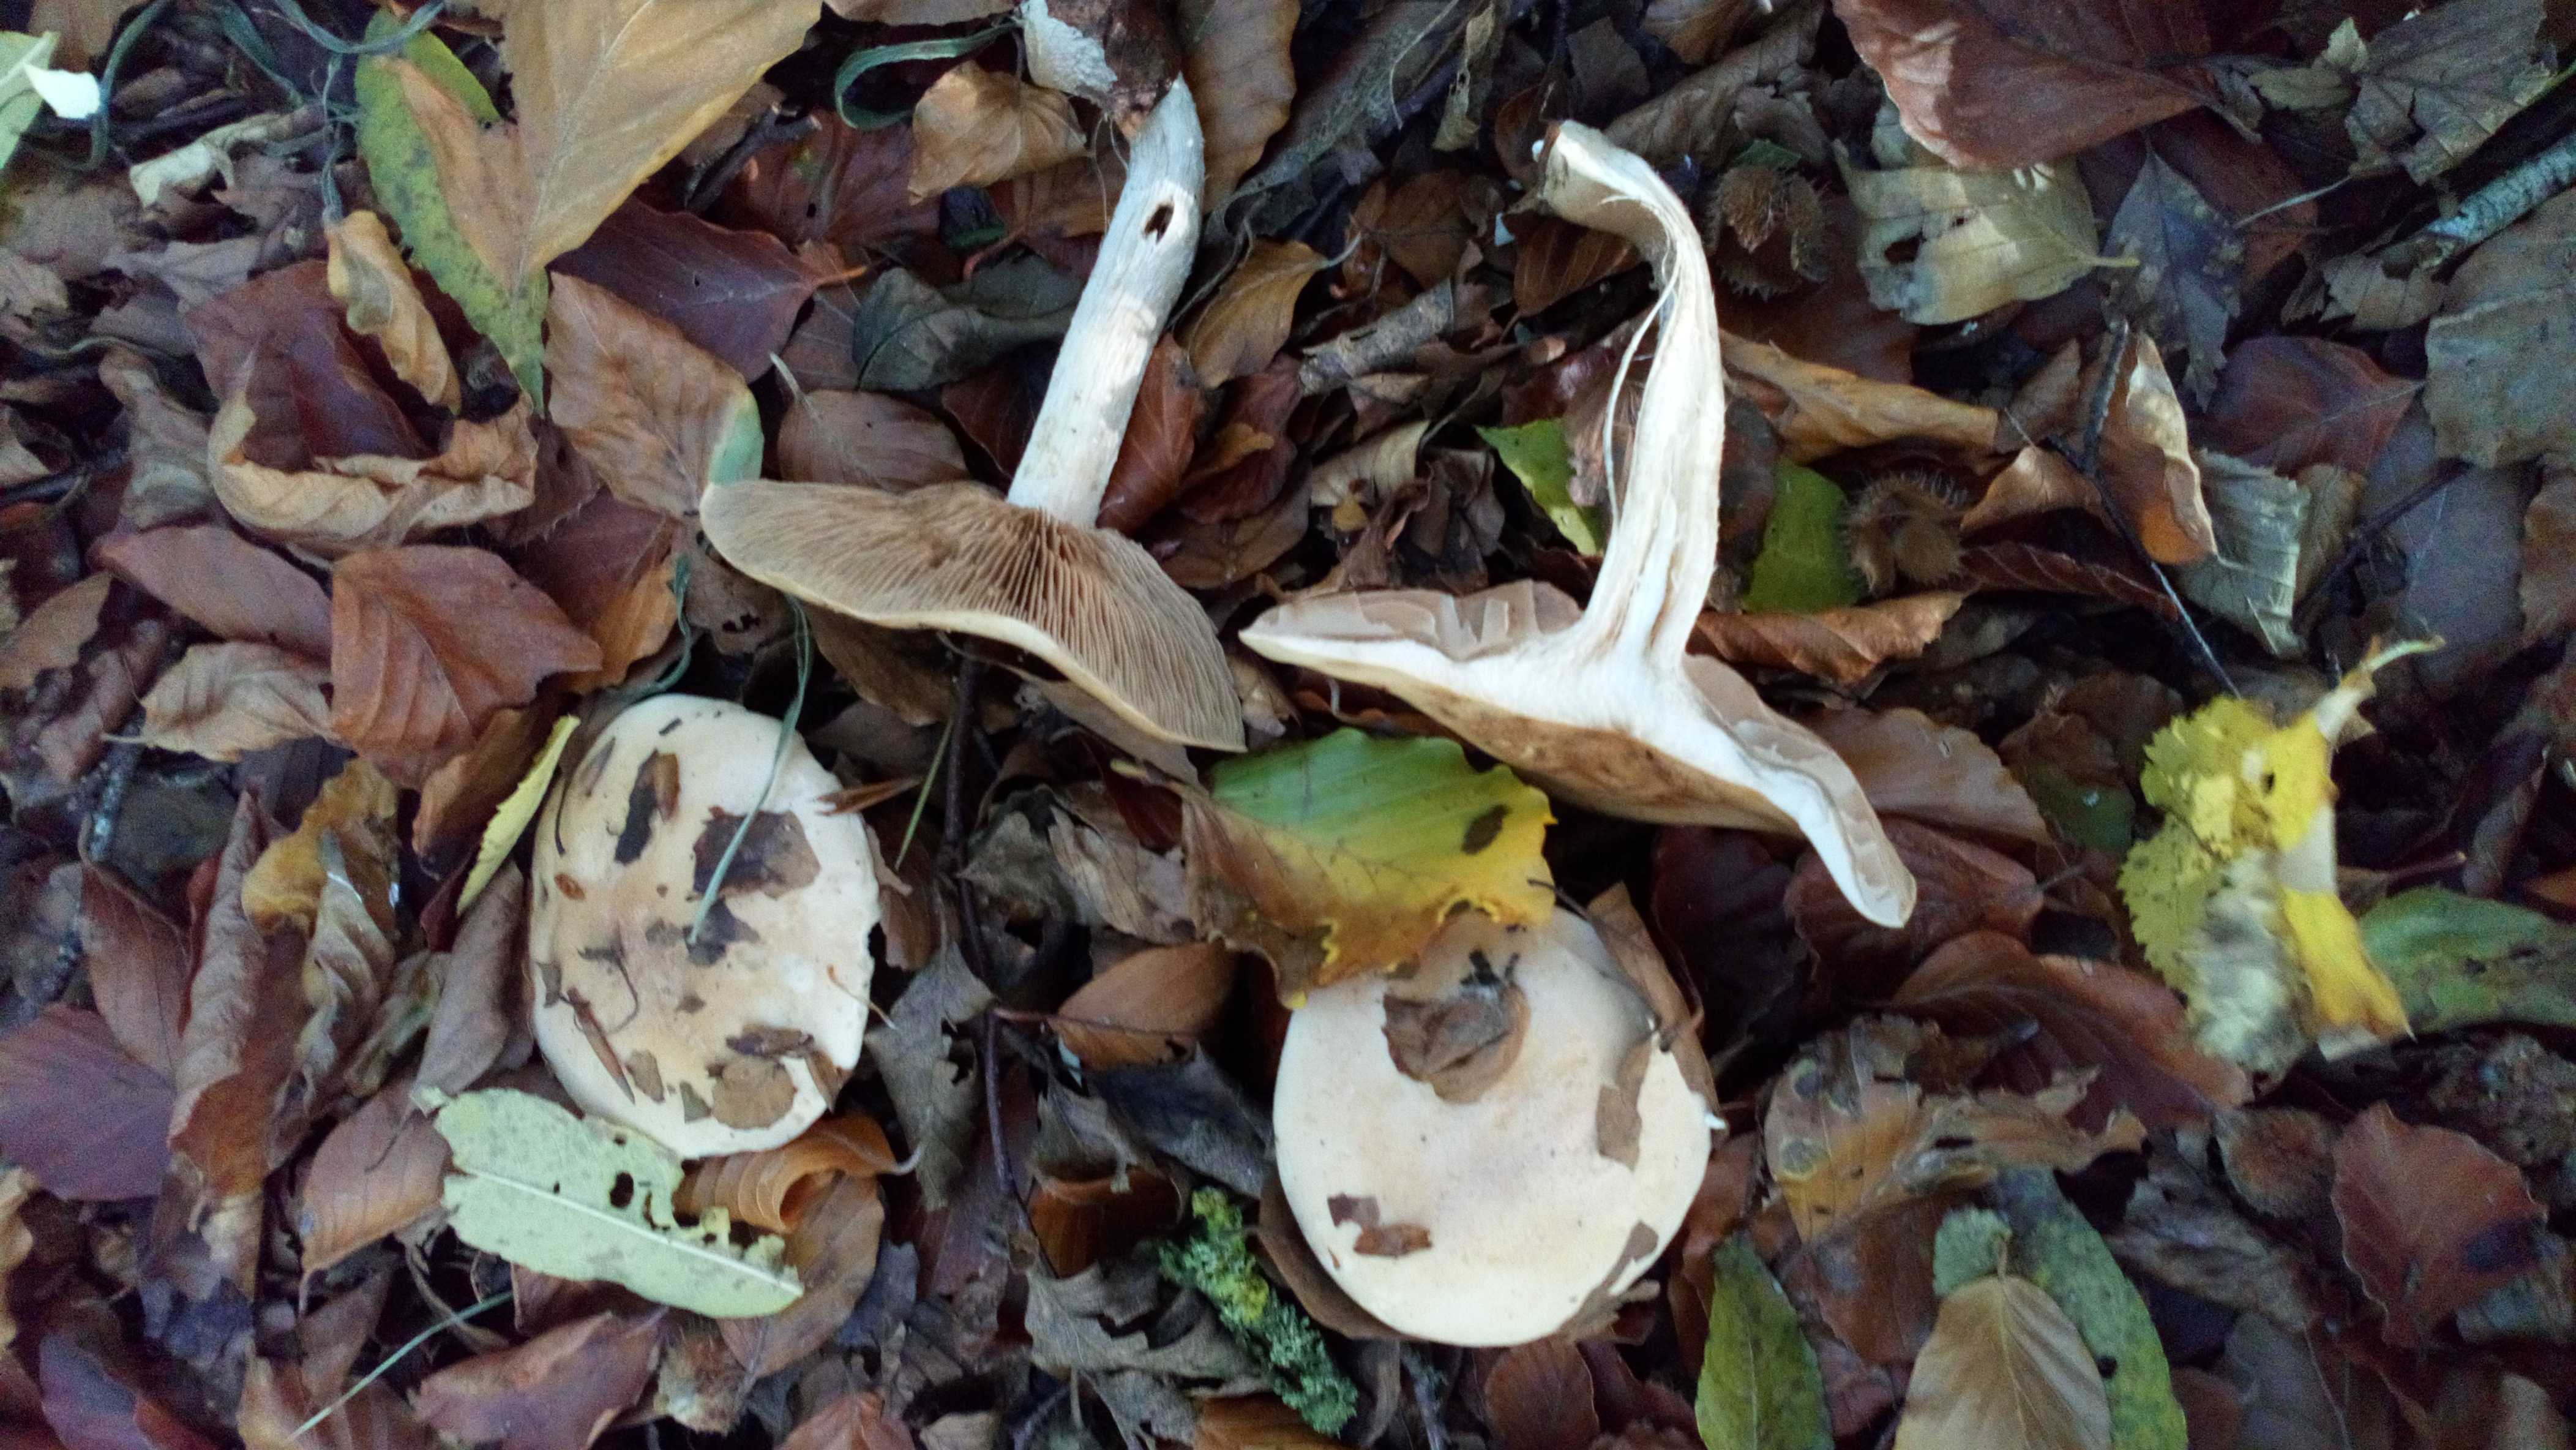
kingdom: Fungi
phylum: Basidiomycota
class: Agaricomycetes
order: Agaricales
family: Hymenogastraceae
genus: Hebeloma
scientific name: Hebeloma sinapizans
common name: ræddike-tåreblad
